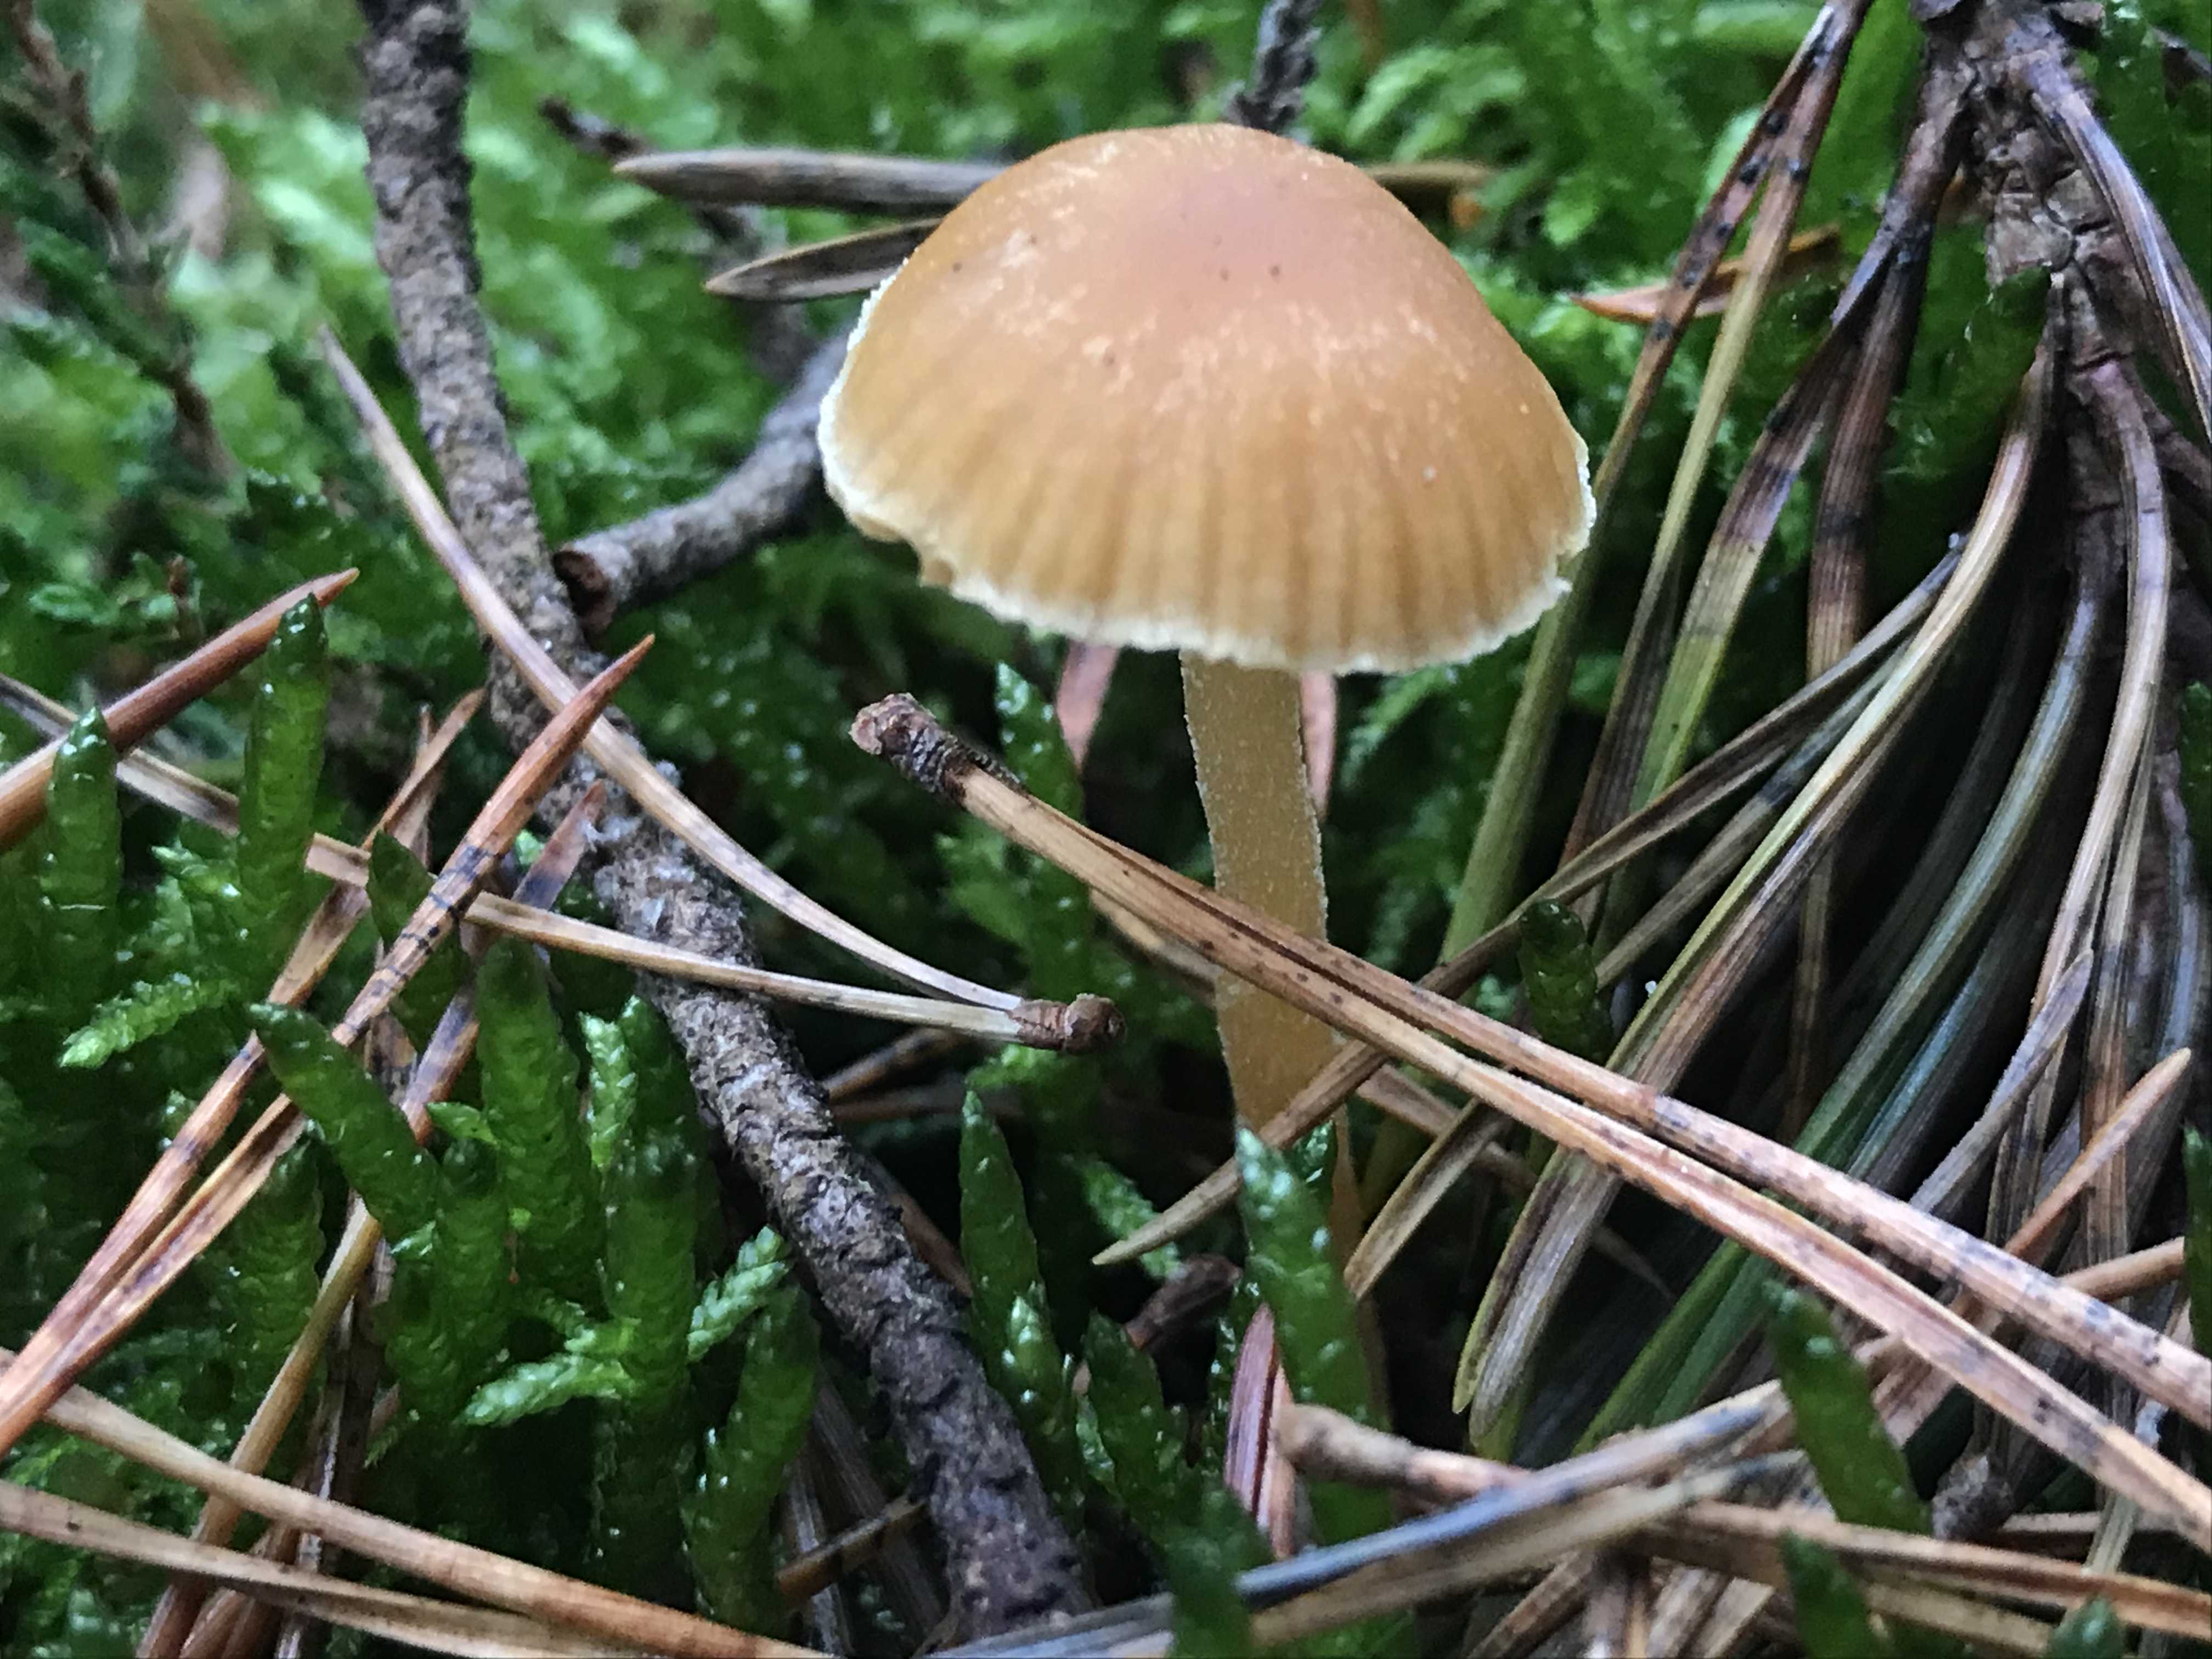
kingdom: Fungi
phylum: Basidiomycota
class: Agaricomycetes
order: Agaricales
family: Hymenogastraceae
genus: Galerina
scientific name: Galerina
